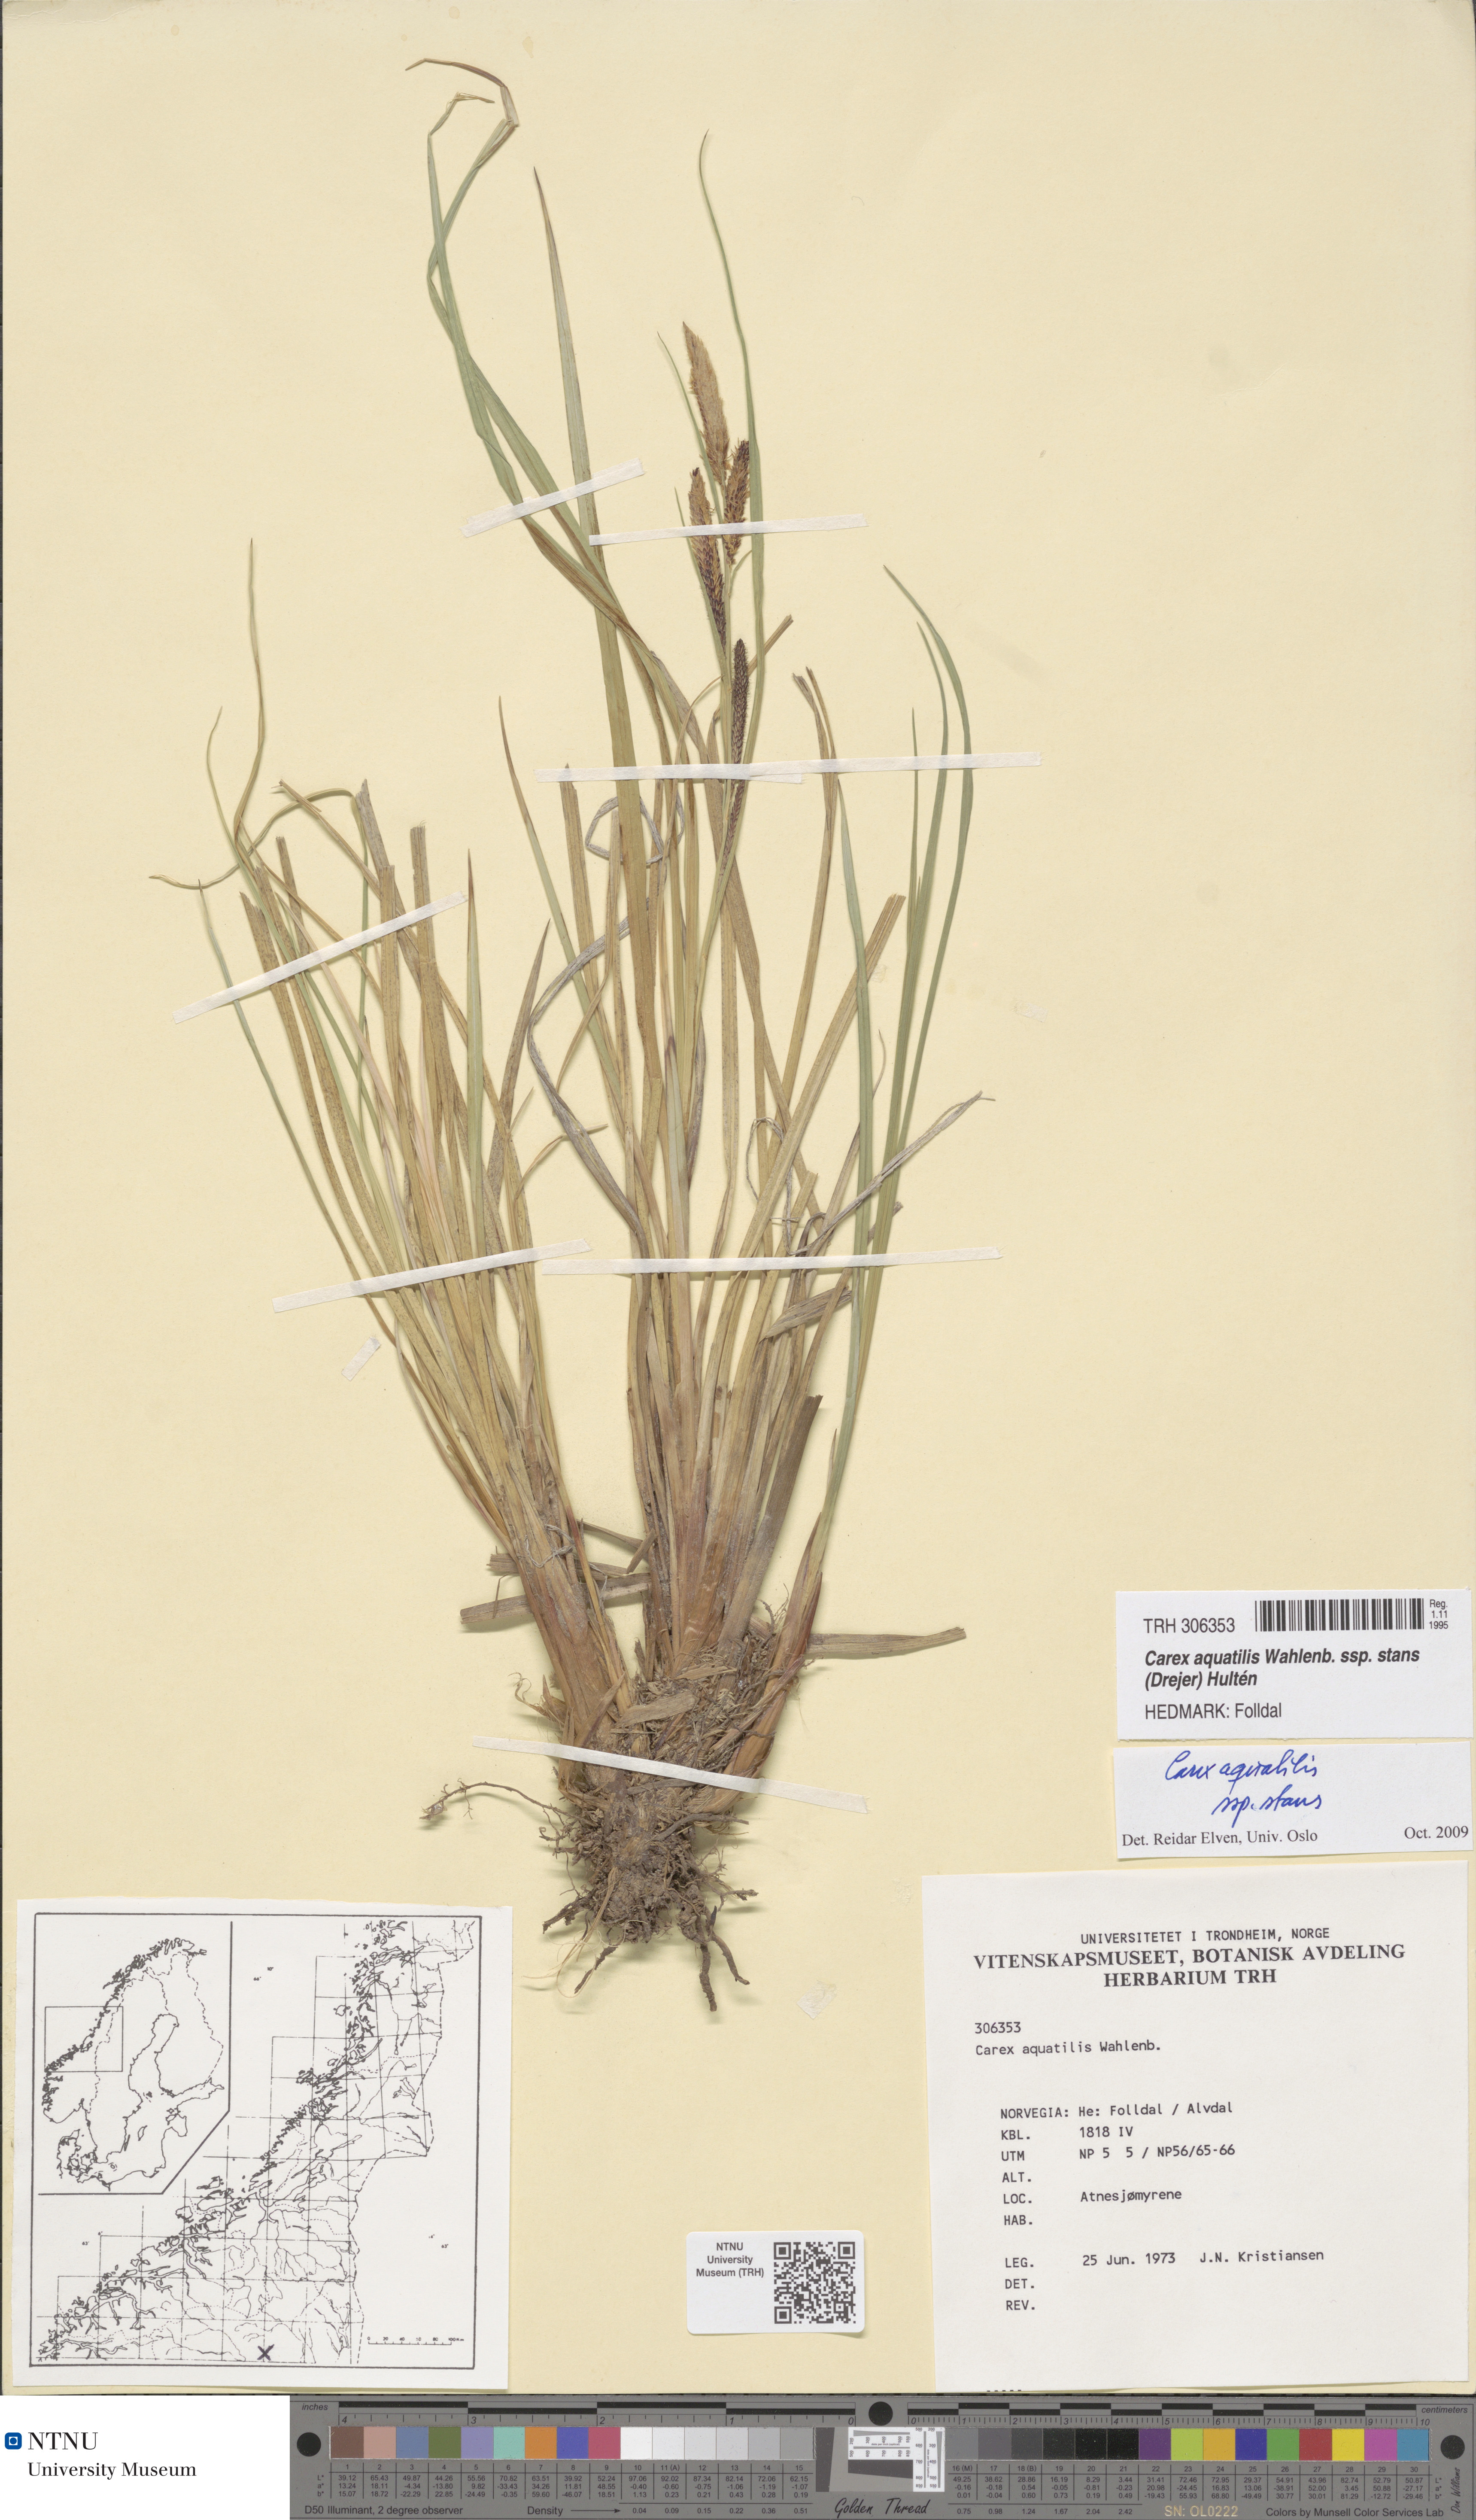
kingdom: Plantae
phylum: Tracheophyta
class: Liliopsida
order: Poales
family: Cyperaceae
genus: Carex
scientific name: Carex aquatilis
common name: Water sedge
